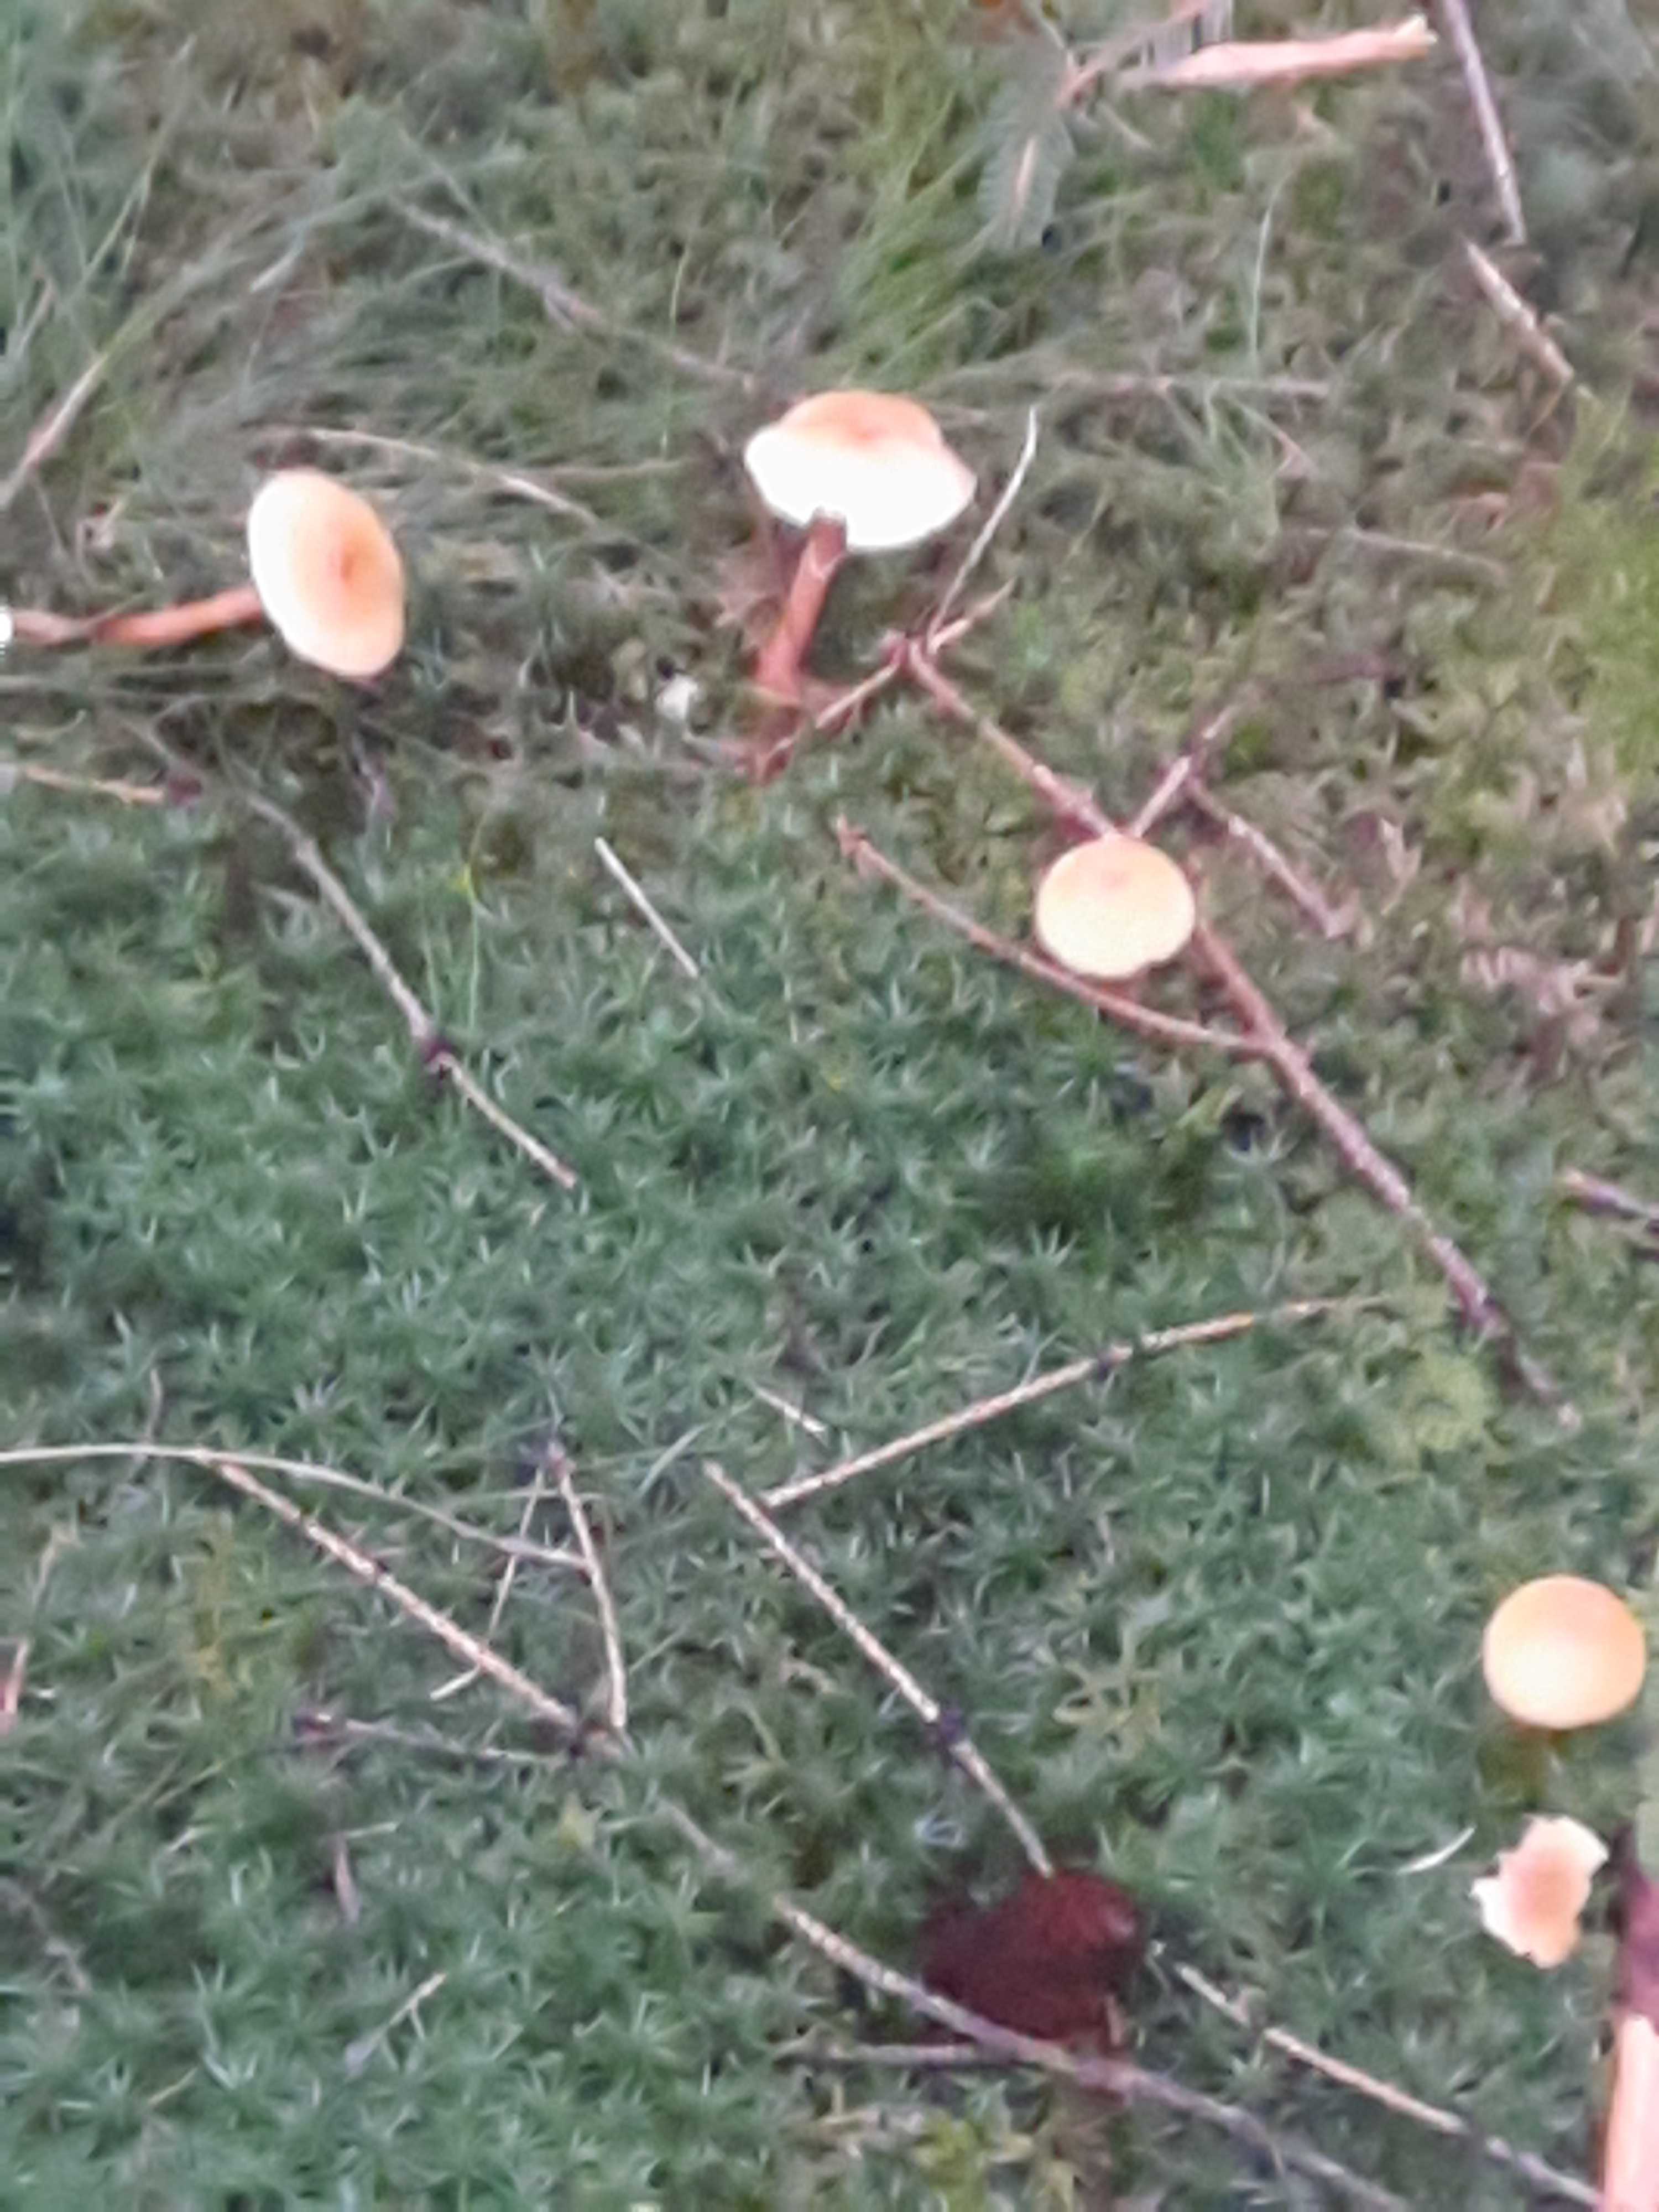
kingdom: Fungi
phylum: Basidiomycota
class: Agaricomycetes
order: Agaricales
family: Tricholomataceae
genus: Cystoderma
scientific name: Cystoderma amianthinum
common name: okkergul grynhat
